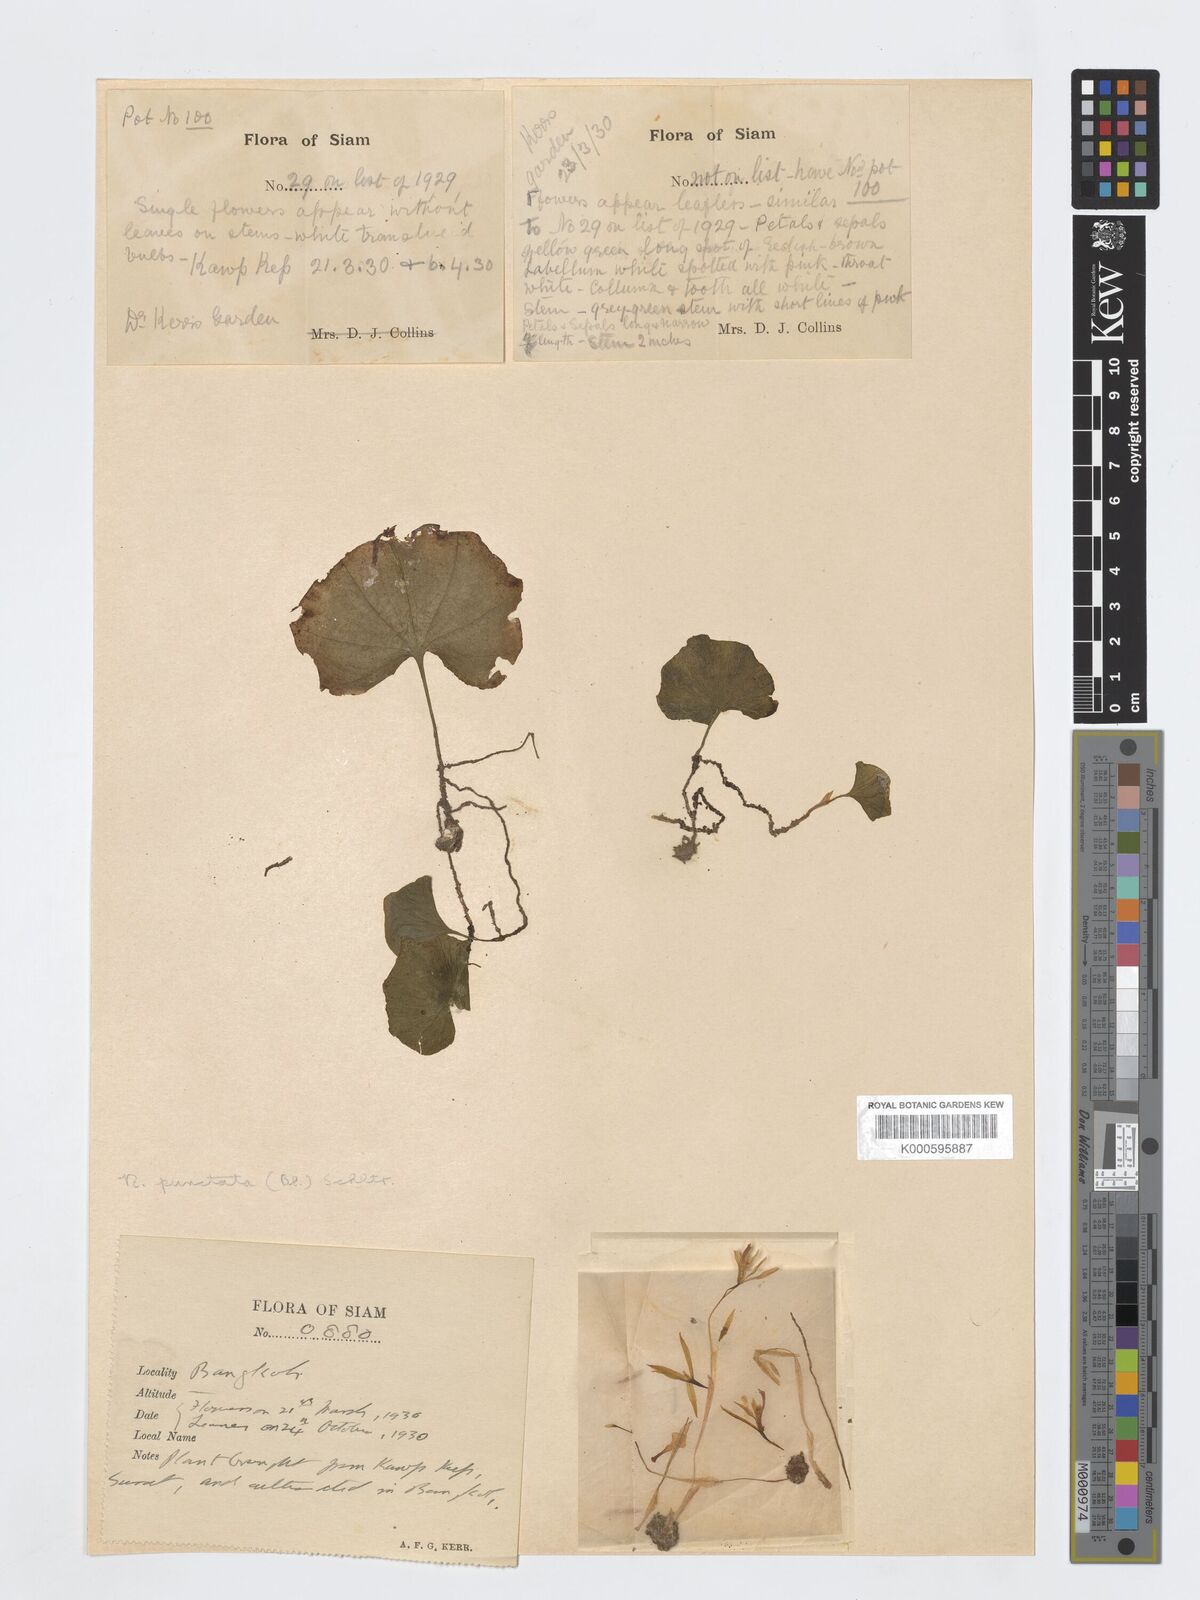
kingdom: Plantae
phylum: Tracheophyta
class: Liliopsida
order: Asparagales
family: Orchidaceae
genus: Nervilia
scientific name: Nervilia
